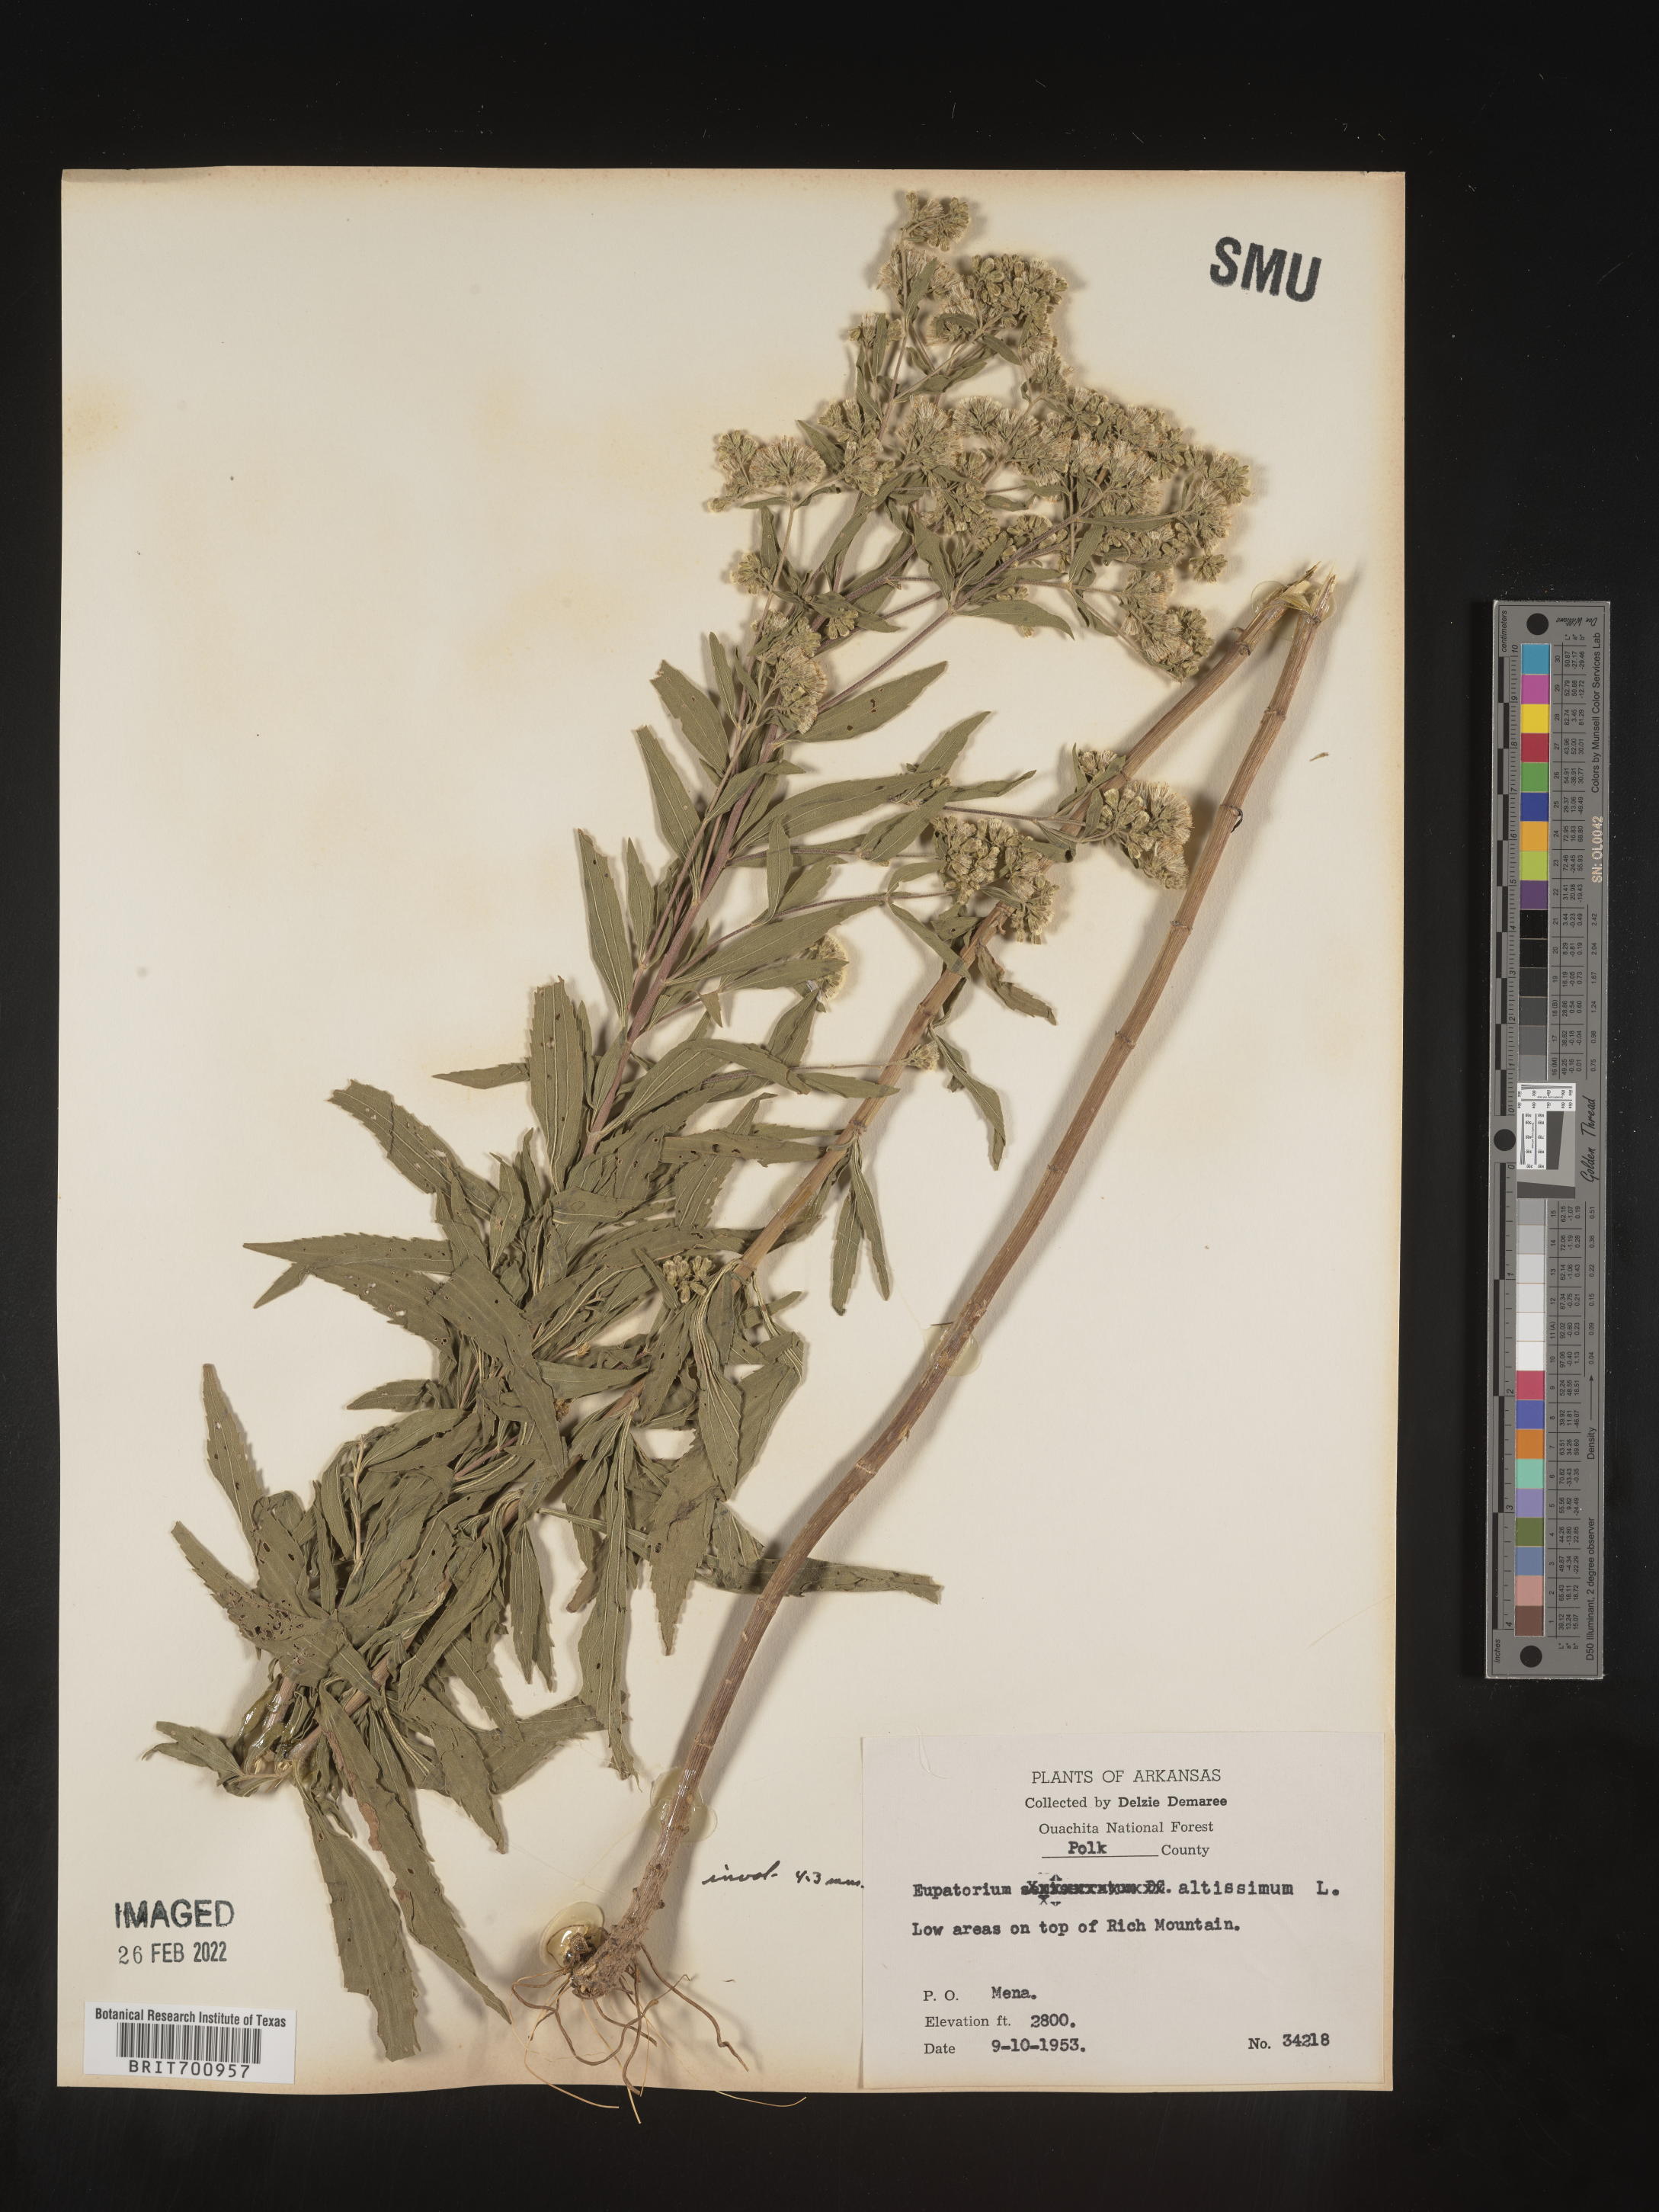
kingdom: Plantae
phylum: Tracheophyta
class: Magnoliopsida
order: Asterales
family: Asteraceae
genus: Eupatorium
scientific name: Eupatorium altissimum
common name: Tall thoroughwort
